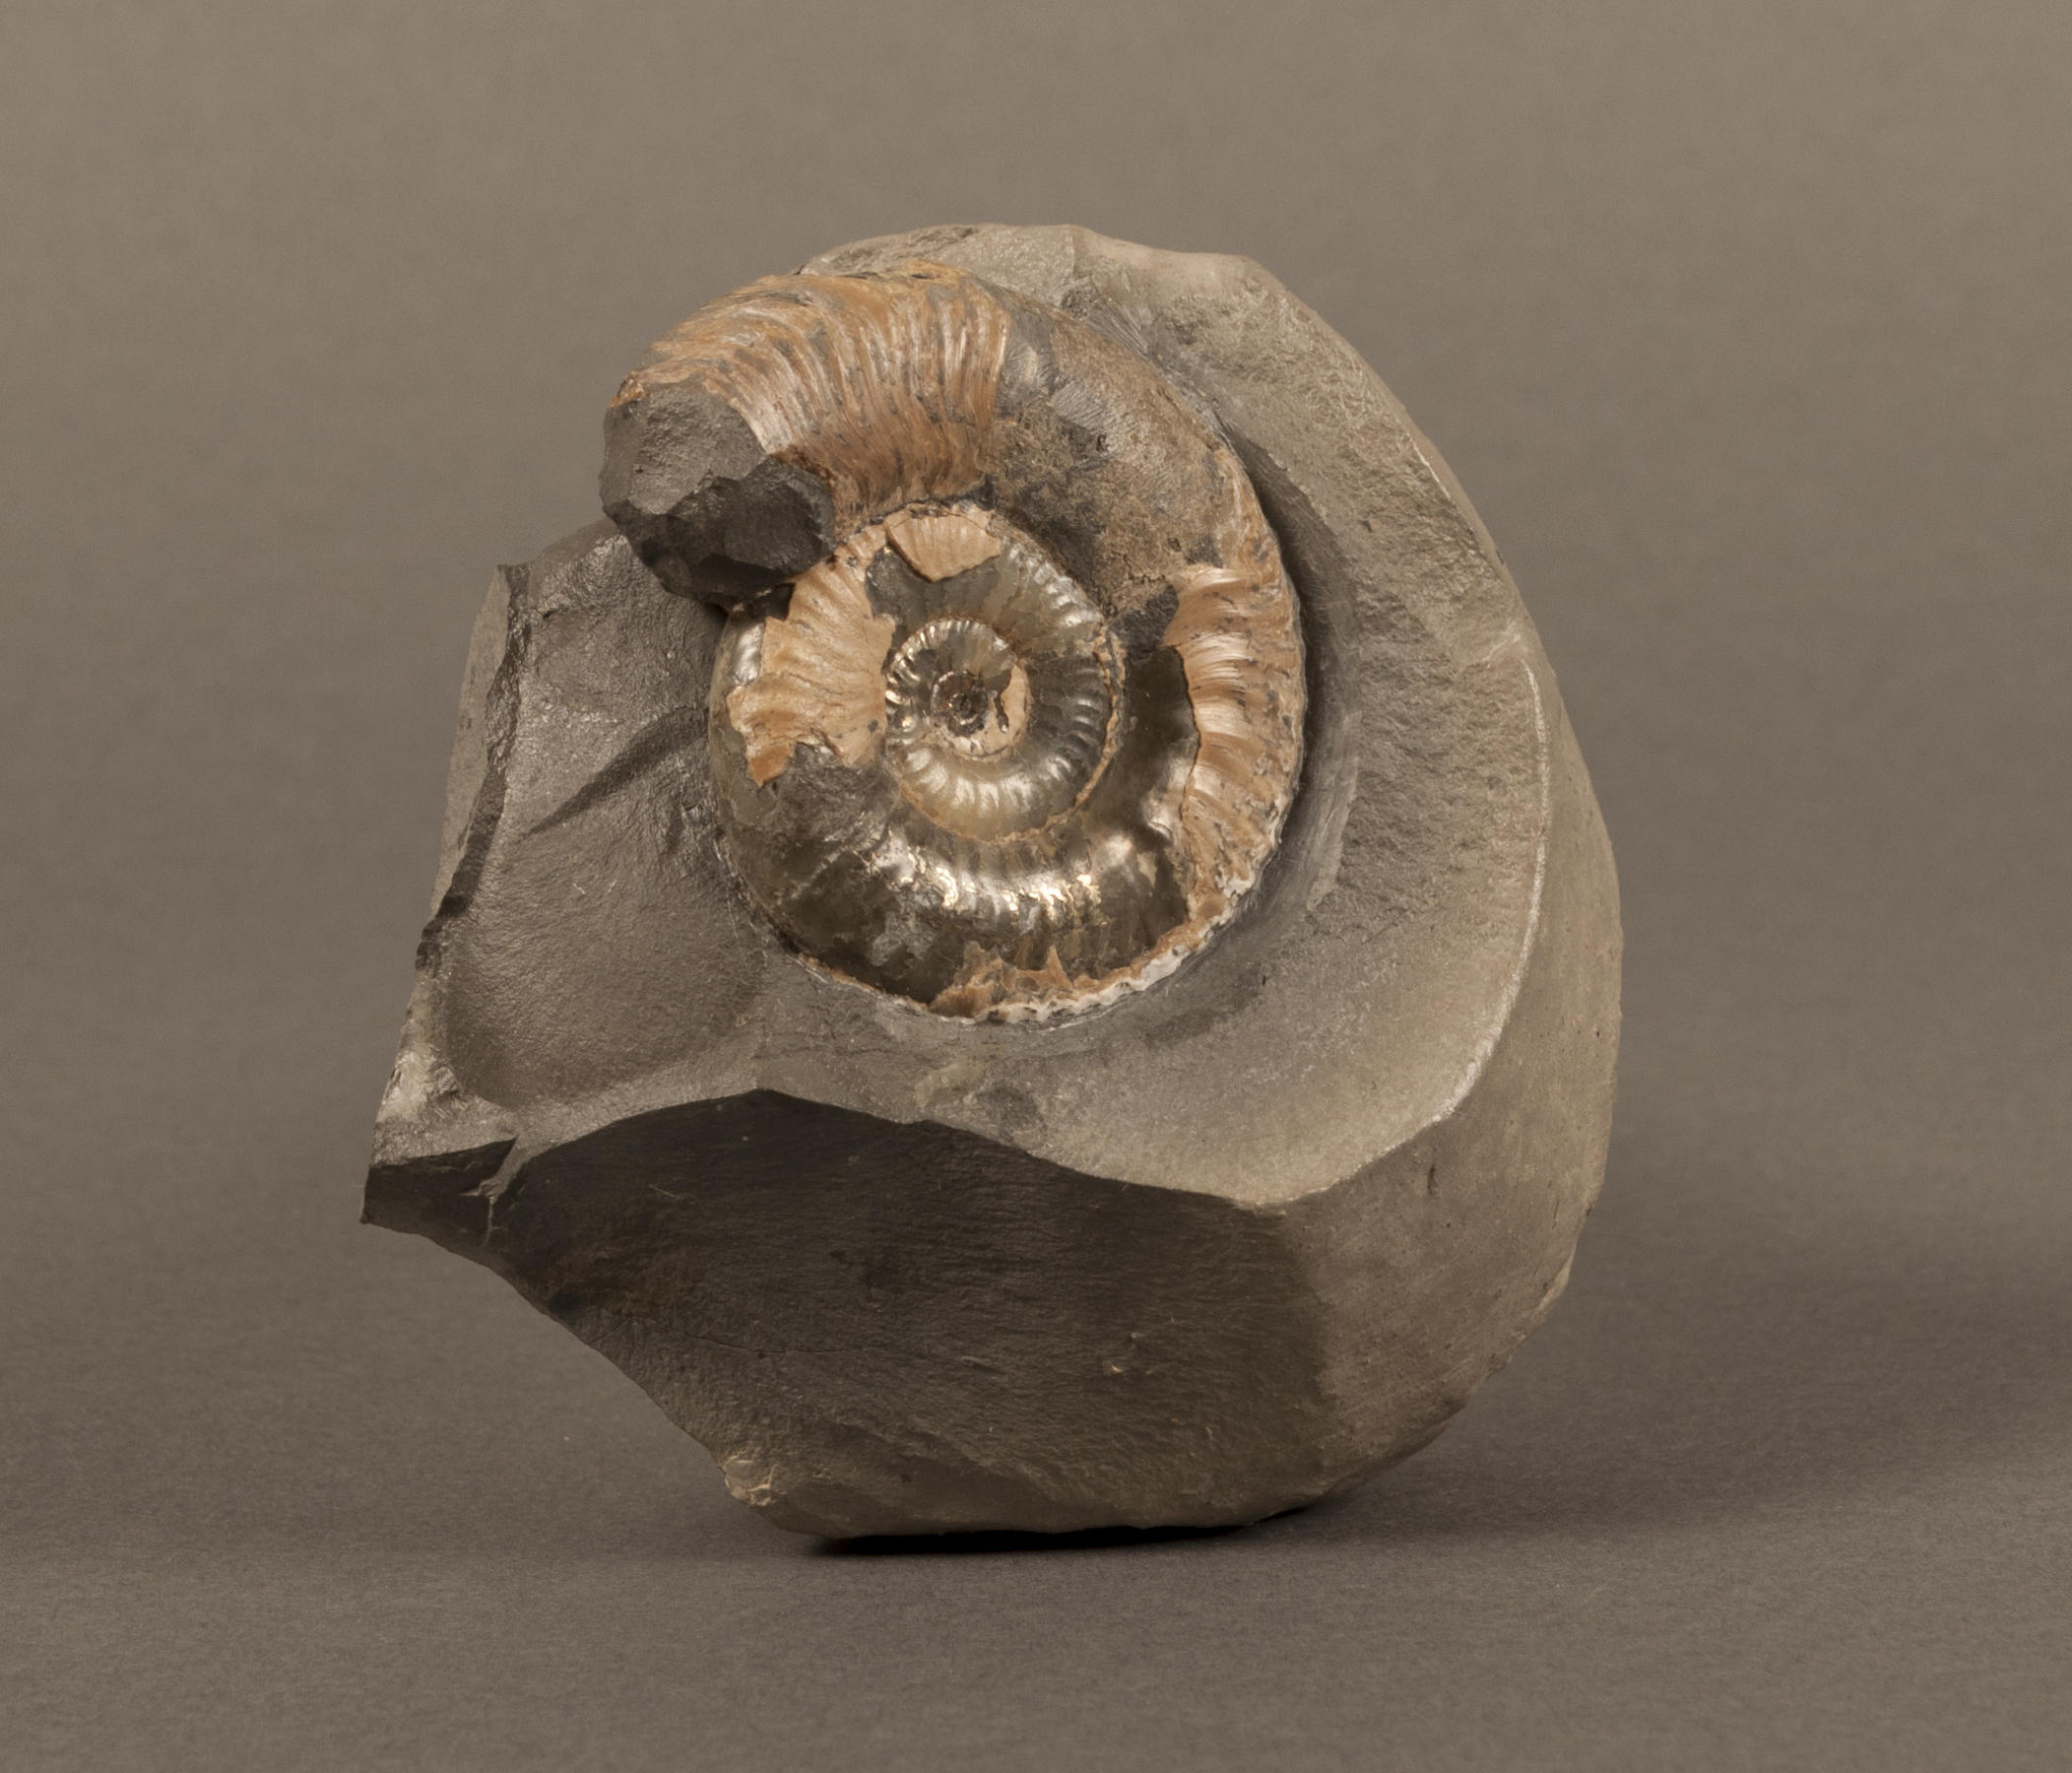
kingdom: Animalia
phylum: Mollusca
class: Cephalopoda
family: Hildoceratidae
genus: Grammoceras
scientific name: Grammoceras thouarsense
